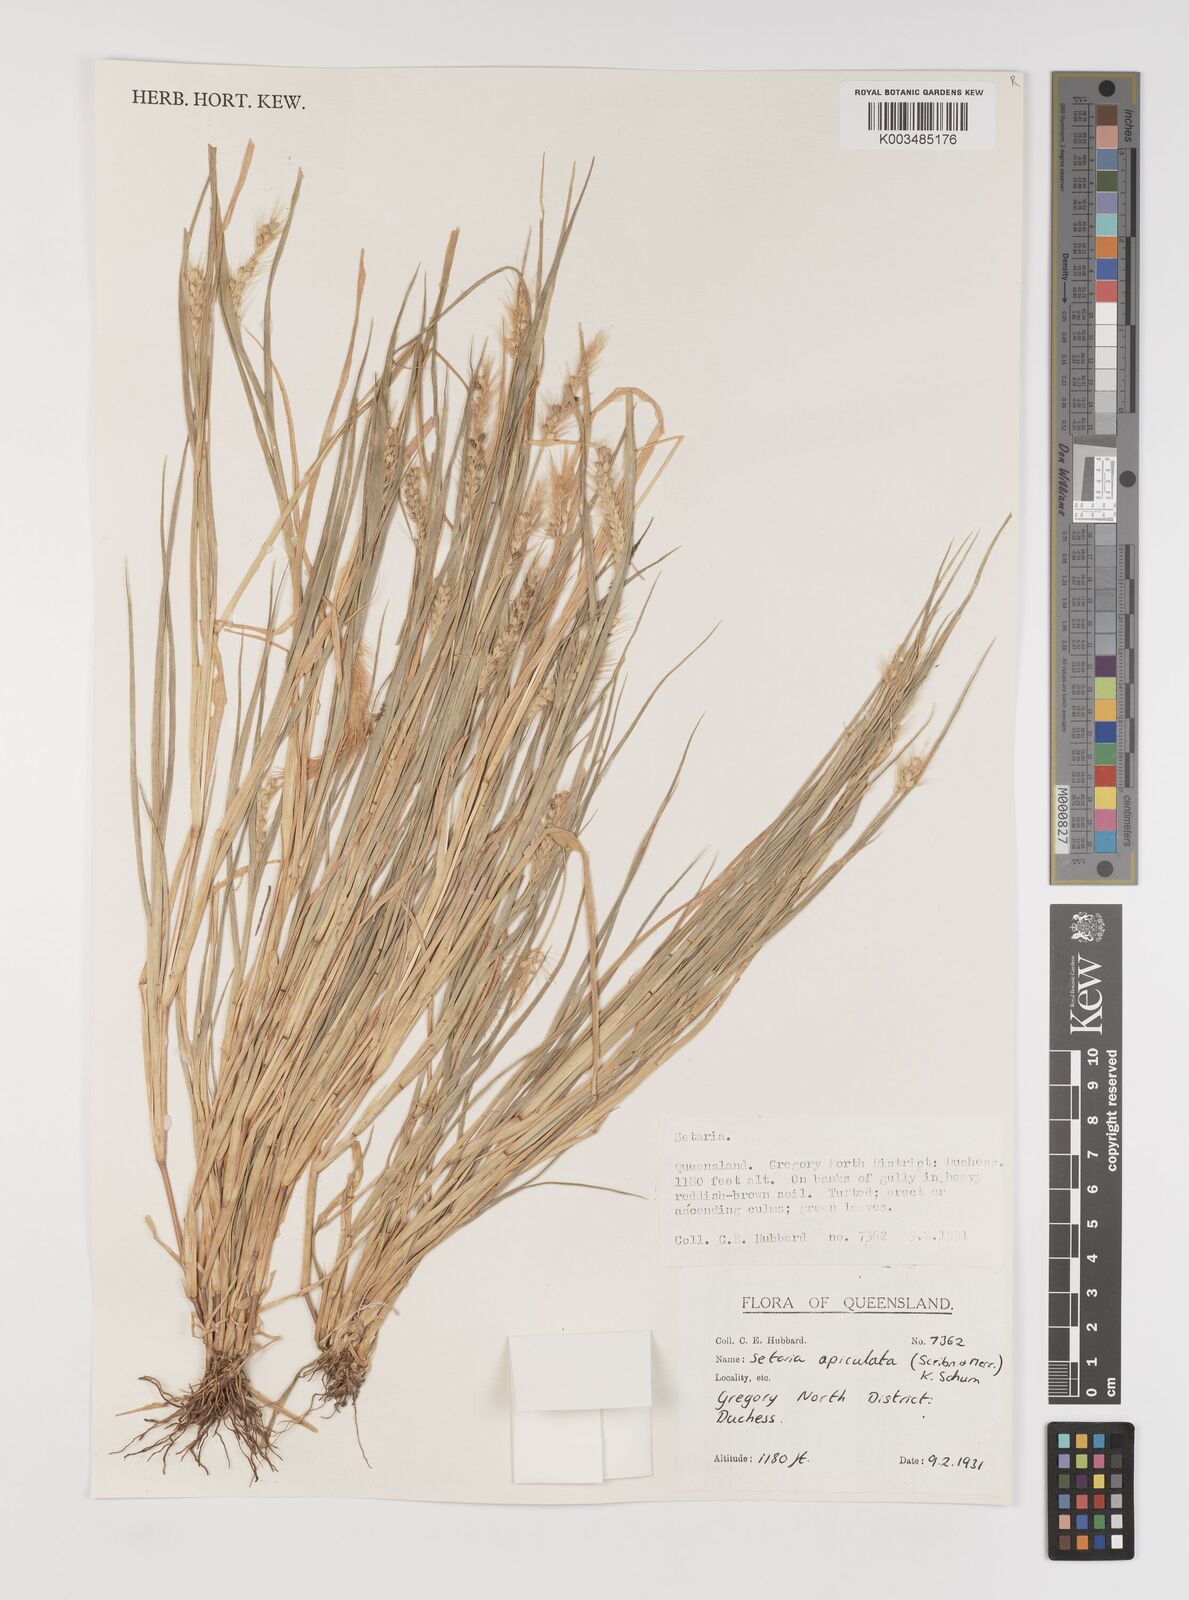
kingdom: Plantae
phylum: Tracheophyta
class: Liliopsida
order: Poales
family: Poaceae
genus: Setaria
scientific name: Setaria apiculata
